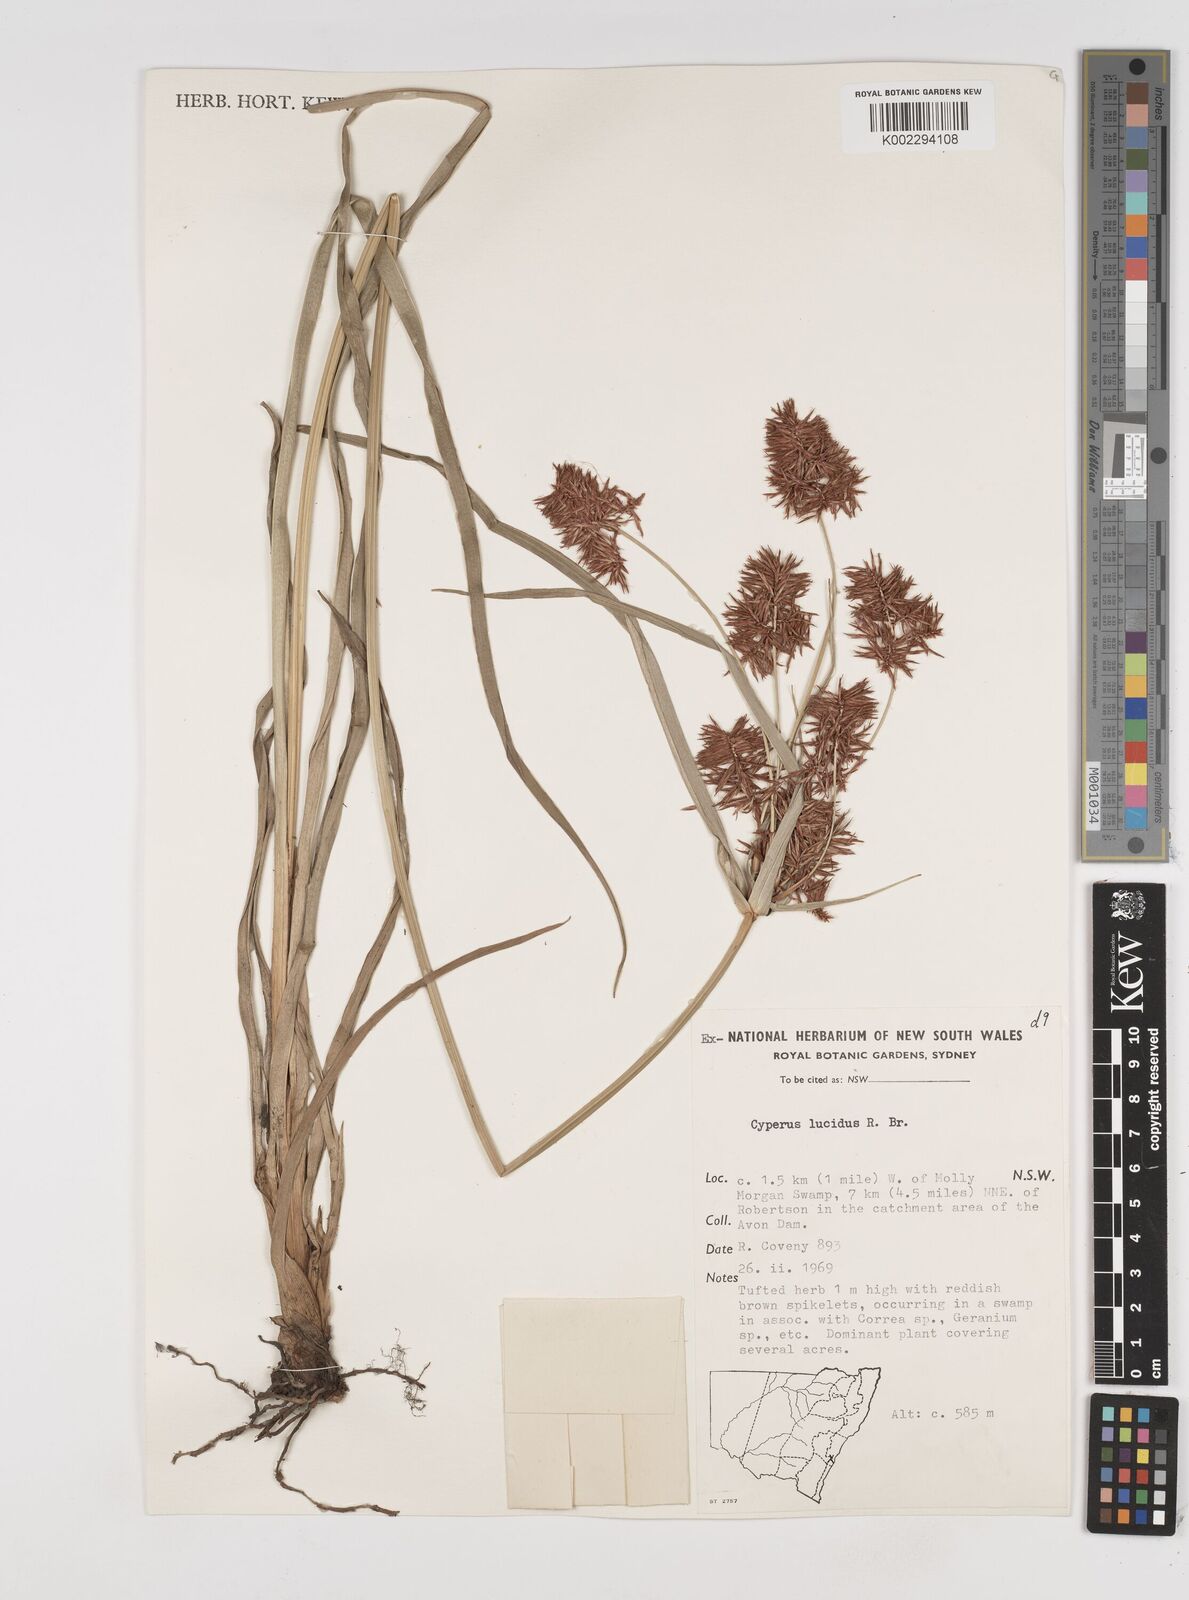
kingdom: Plantae
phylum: Tracheophyta
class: Liliopsida
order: Poales
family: Cyperaceae
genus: Cyperus
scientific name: Cyperus lucidus
